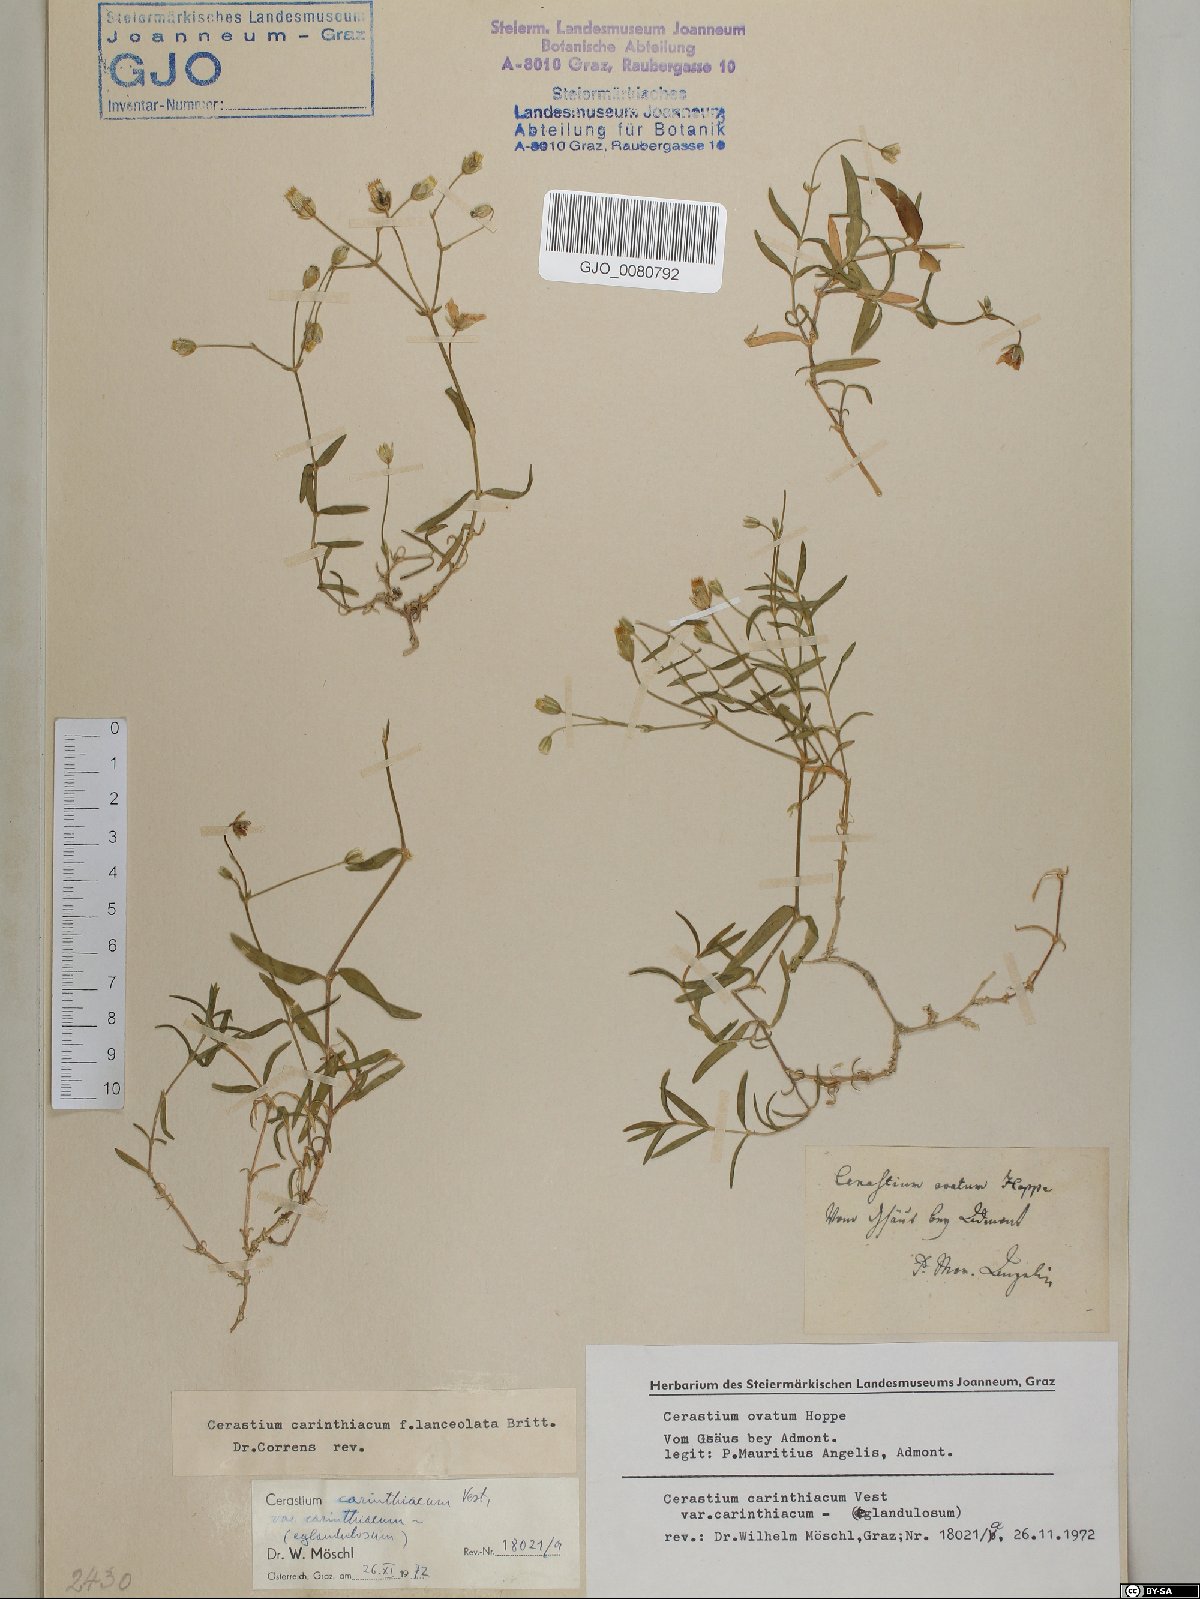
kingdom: Plantae
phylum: Tracheophyta
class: Magnoliopsida
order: Caryophyllales
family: Caryophyllaceae
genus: Cerastium
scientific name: Cerastium carinthiacum
